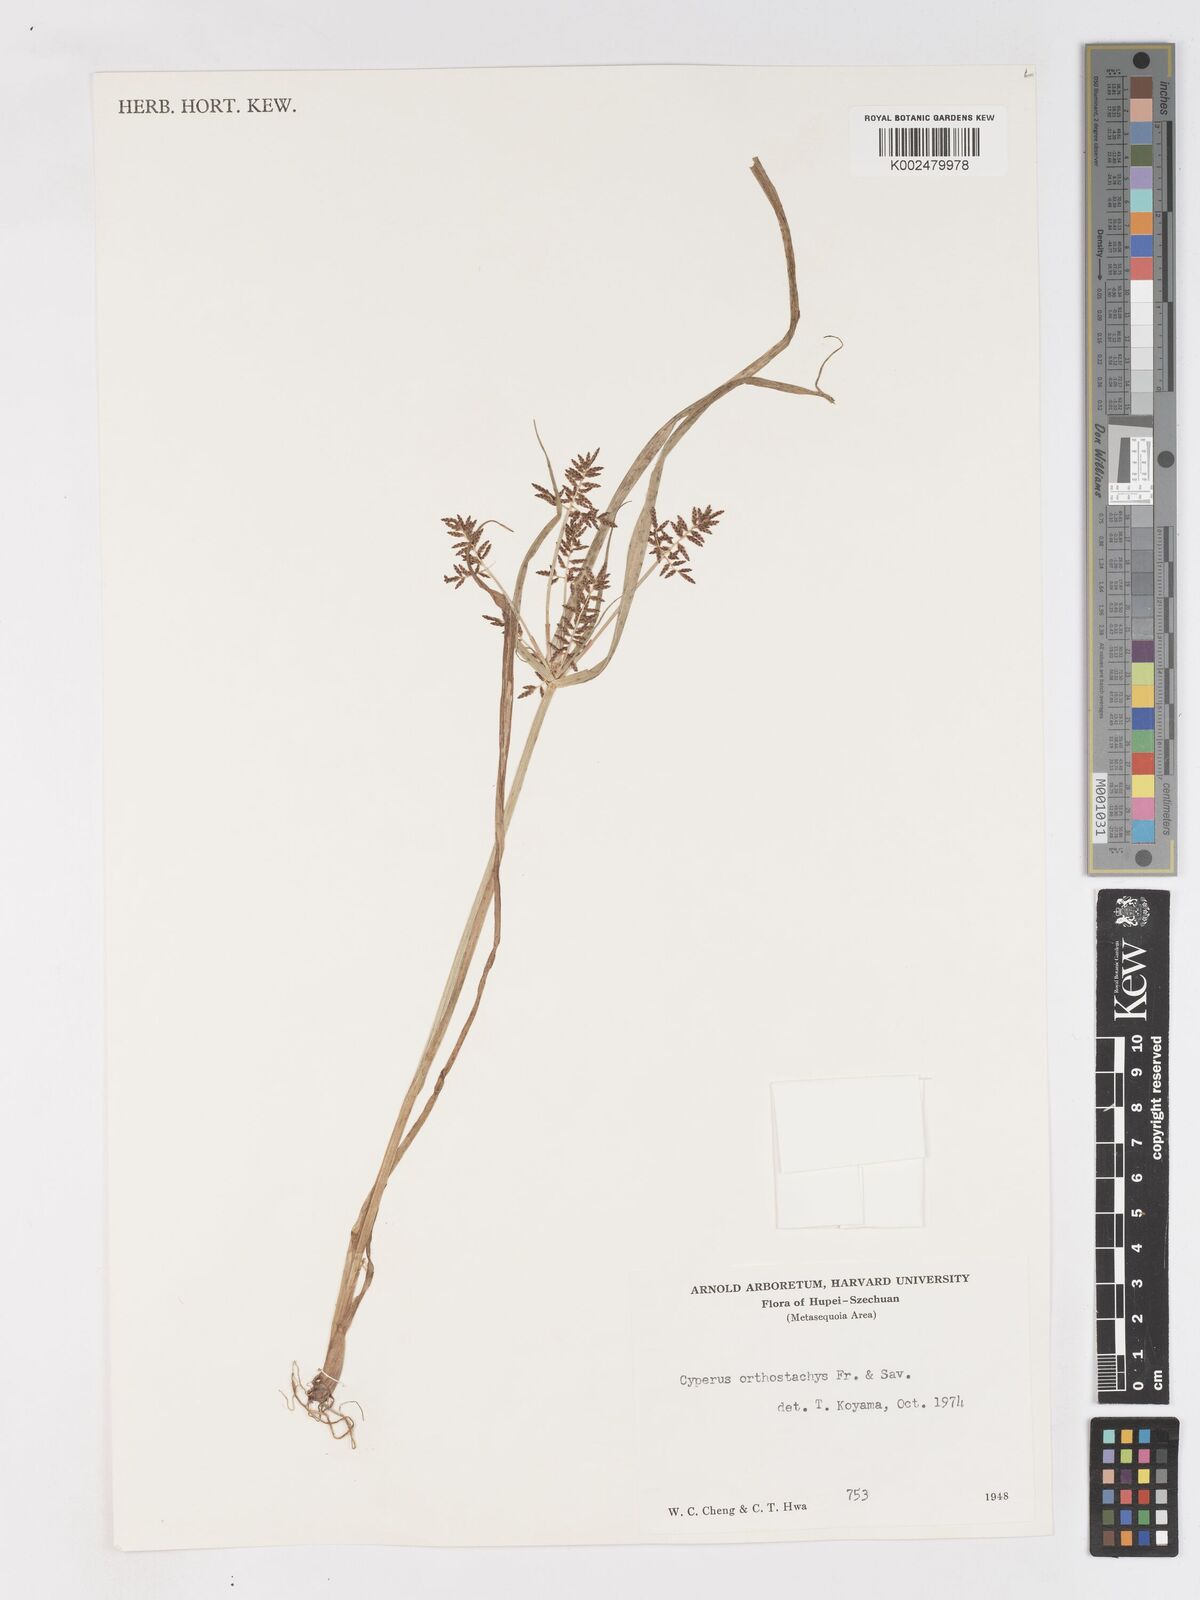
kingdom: Plantae
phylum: Tracheophyta
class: Liliopsida
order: Poales
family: Cyperaceae
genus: Cyperus
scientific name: Cyperus orthostachyus
